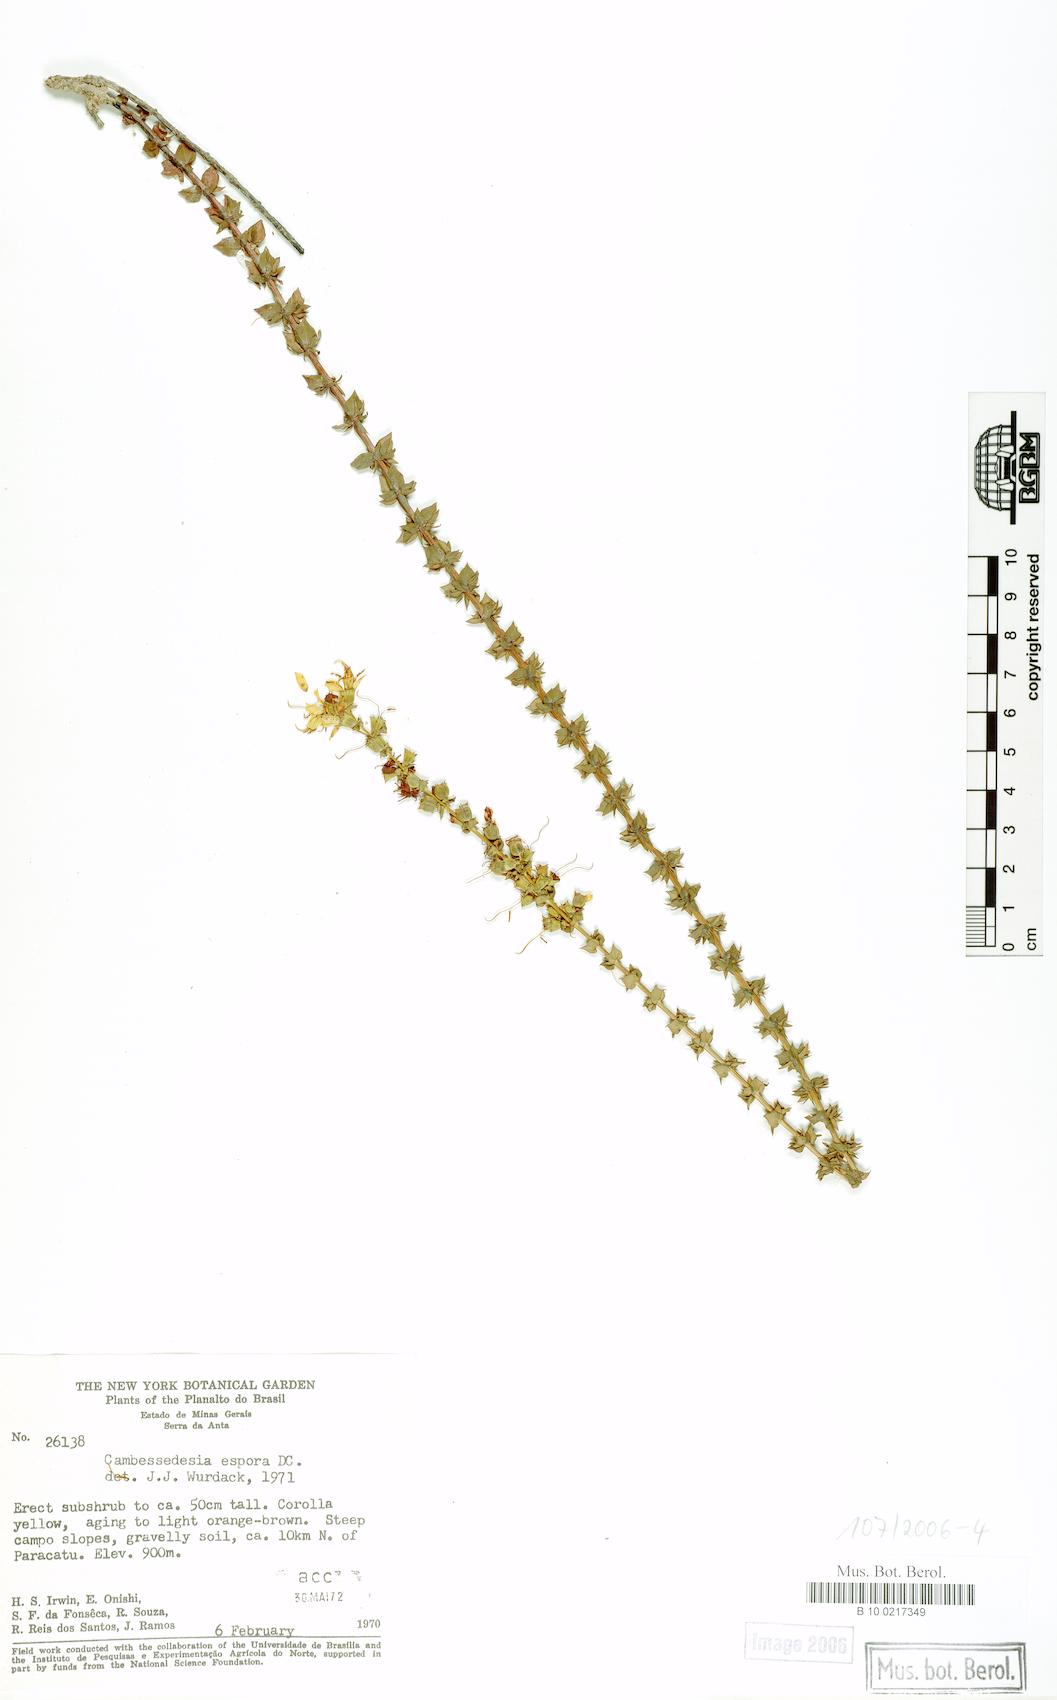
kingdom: Plantae
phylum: Tracheophyta
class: Magnoliopsida
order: Myrtales
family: Melastomataceae
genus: Cambessedesia
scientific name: Cambessedesia espora
